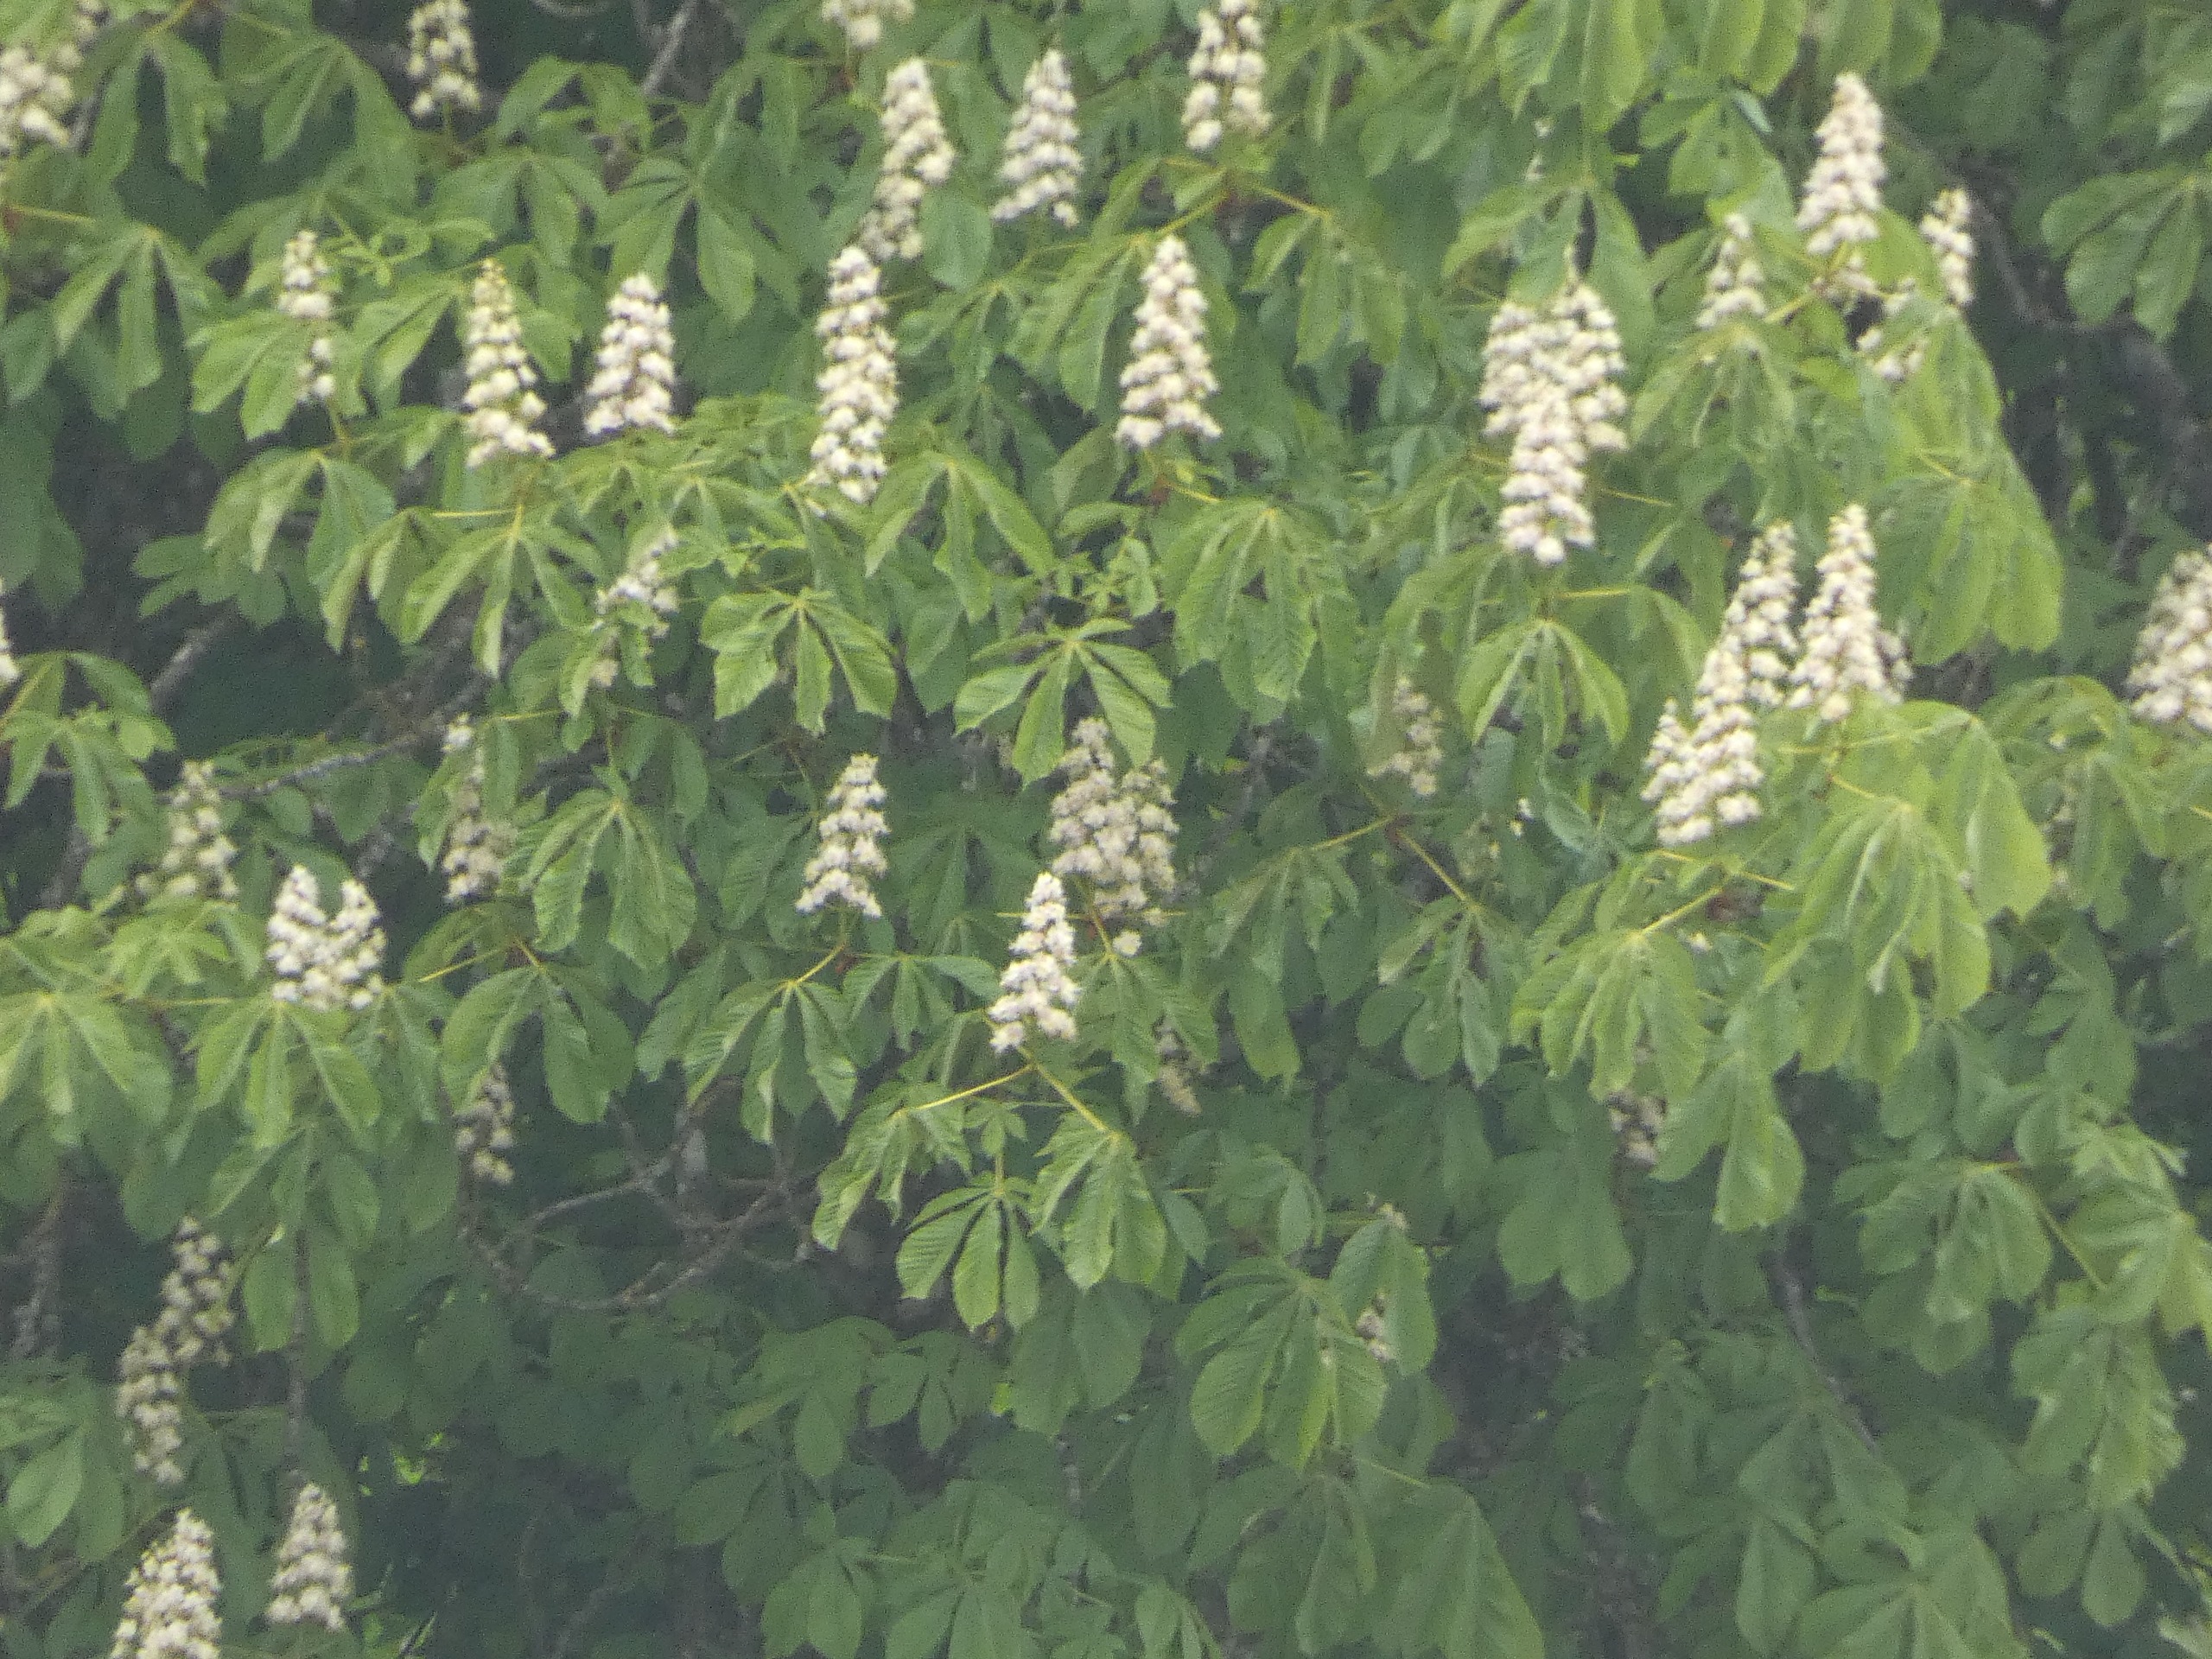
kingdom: Plantae
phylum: Tracheophyta
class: Magnoliopsida
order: Sapindales
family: Sapindaceae
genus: Aesculus
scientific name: Aesculus hippocastanum
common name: Hestekastanie
